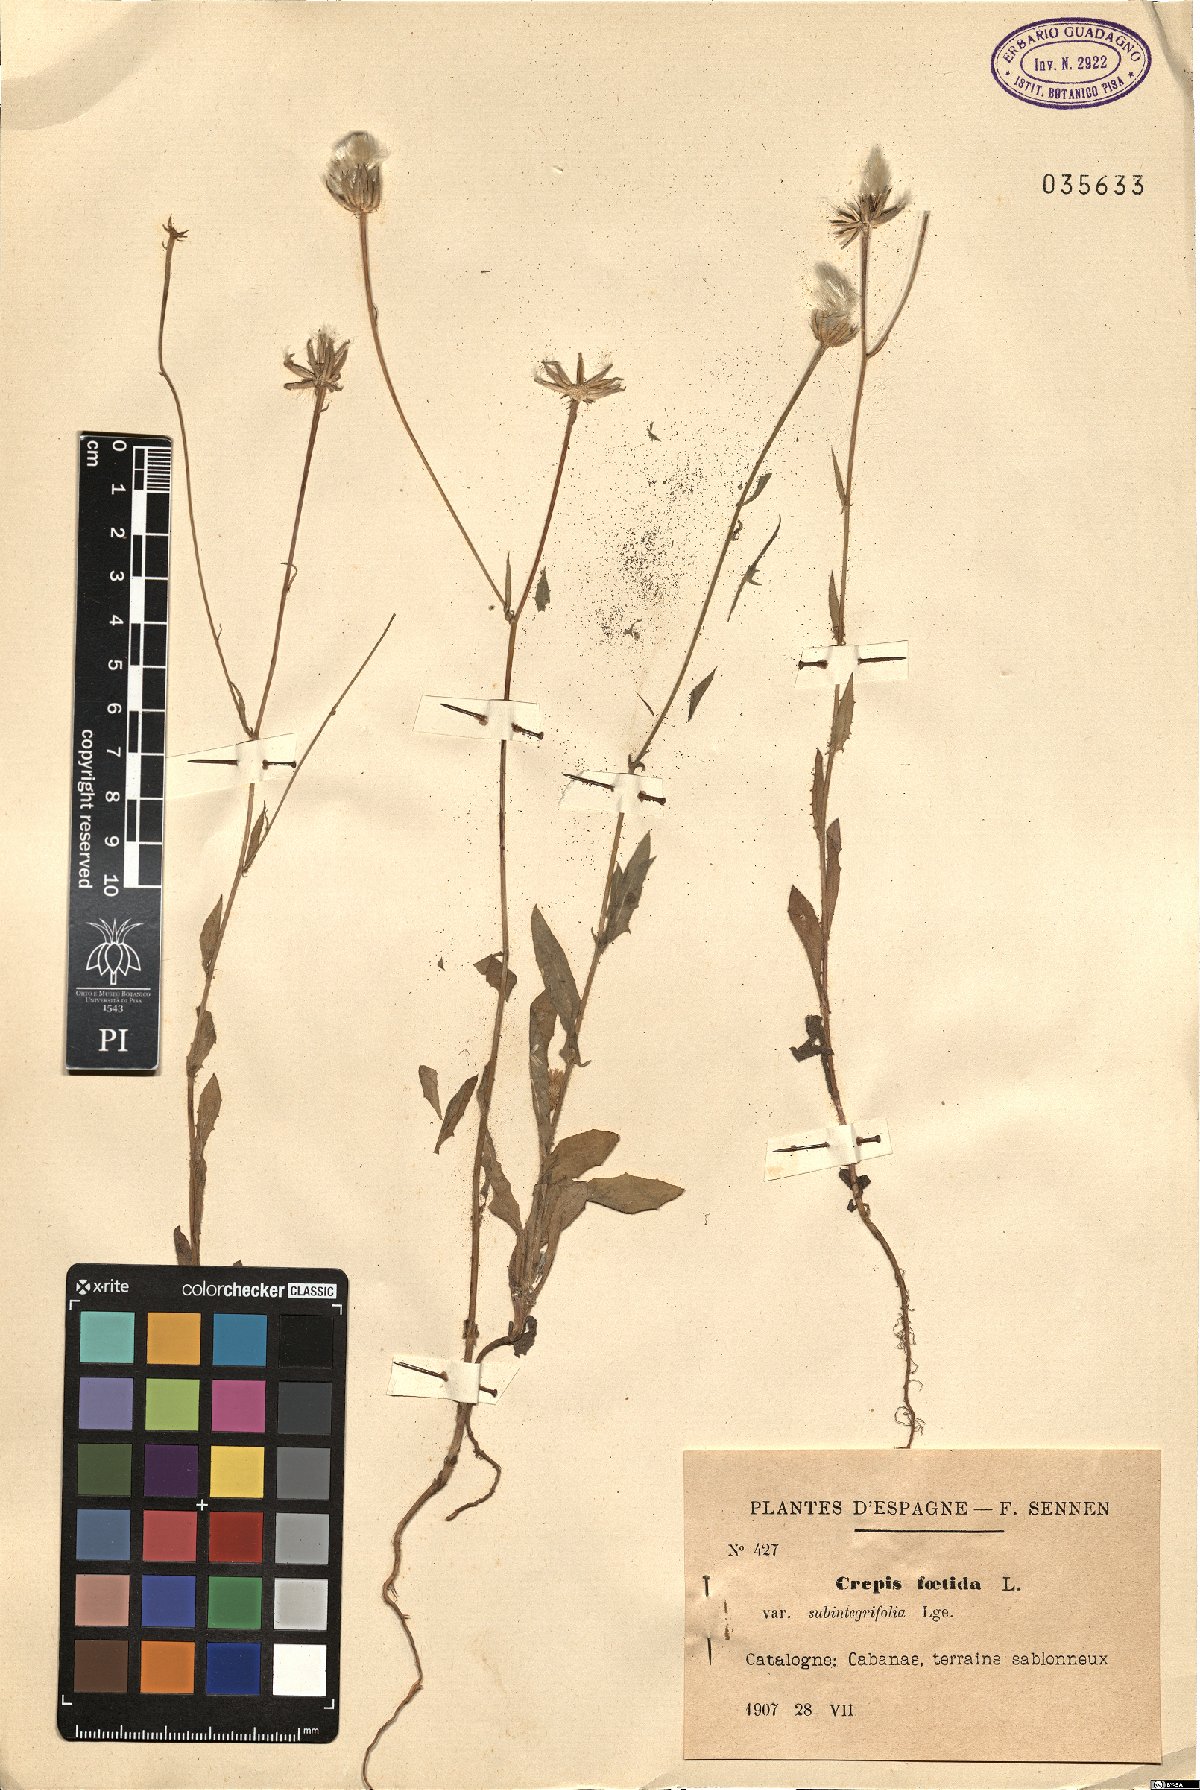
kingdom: Plantae
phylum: Tracheophyta
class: Magnoliopsida
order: Asterales
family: Asteraceae
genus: Crepis
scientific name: Crepis foetida
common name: Stinking hawk's-beard
